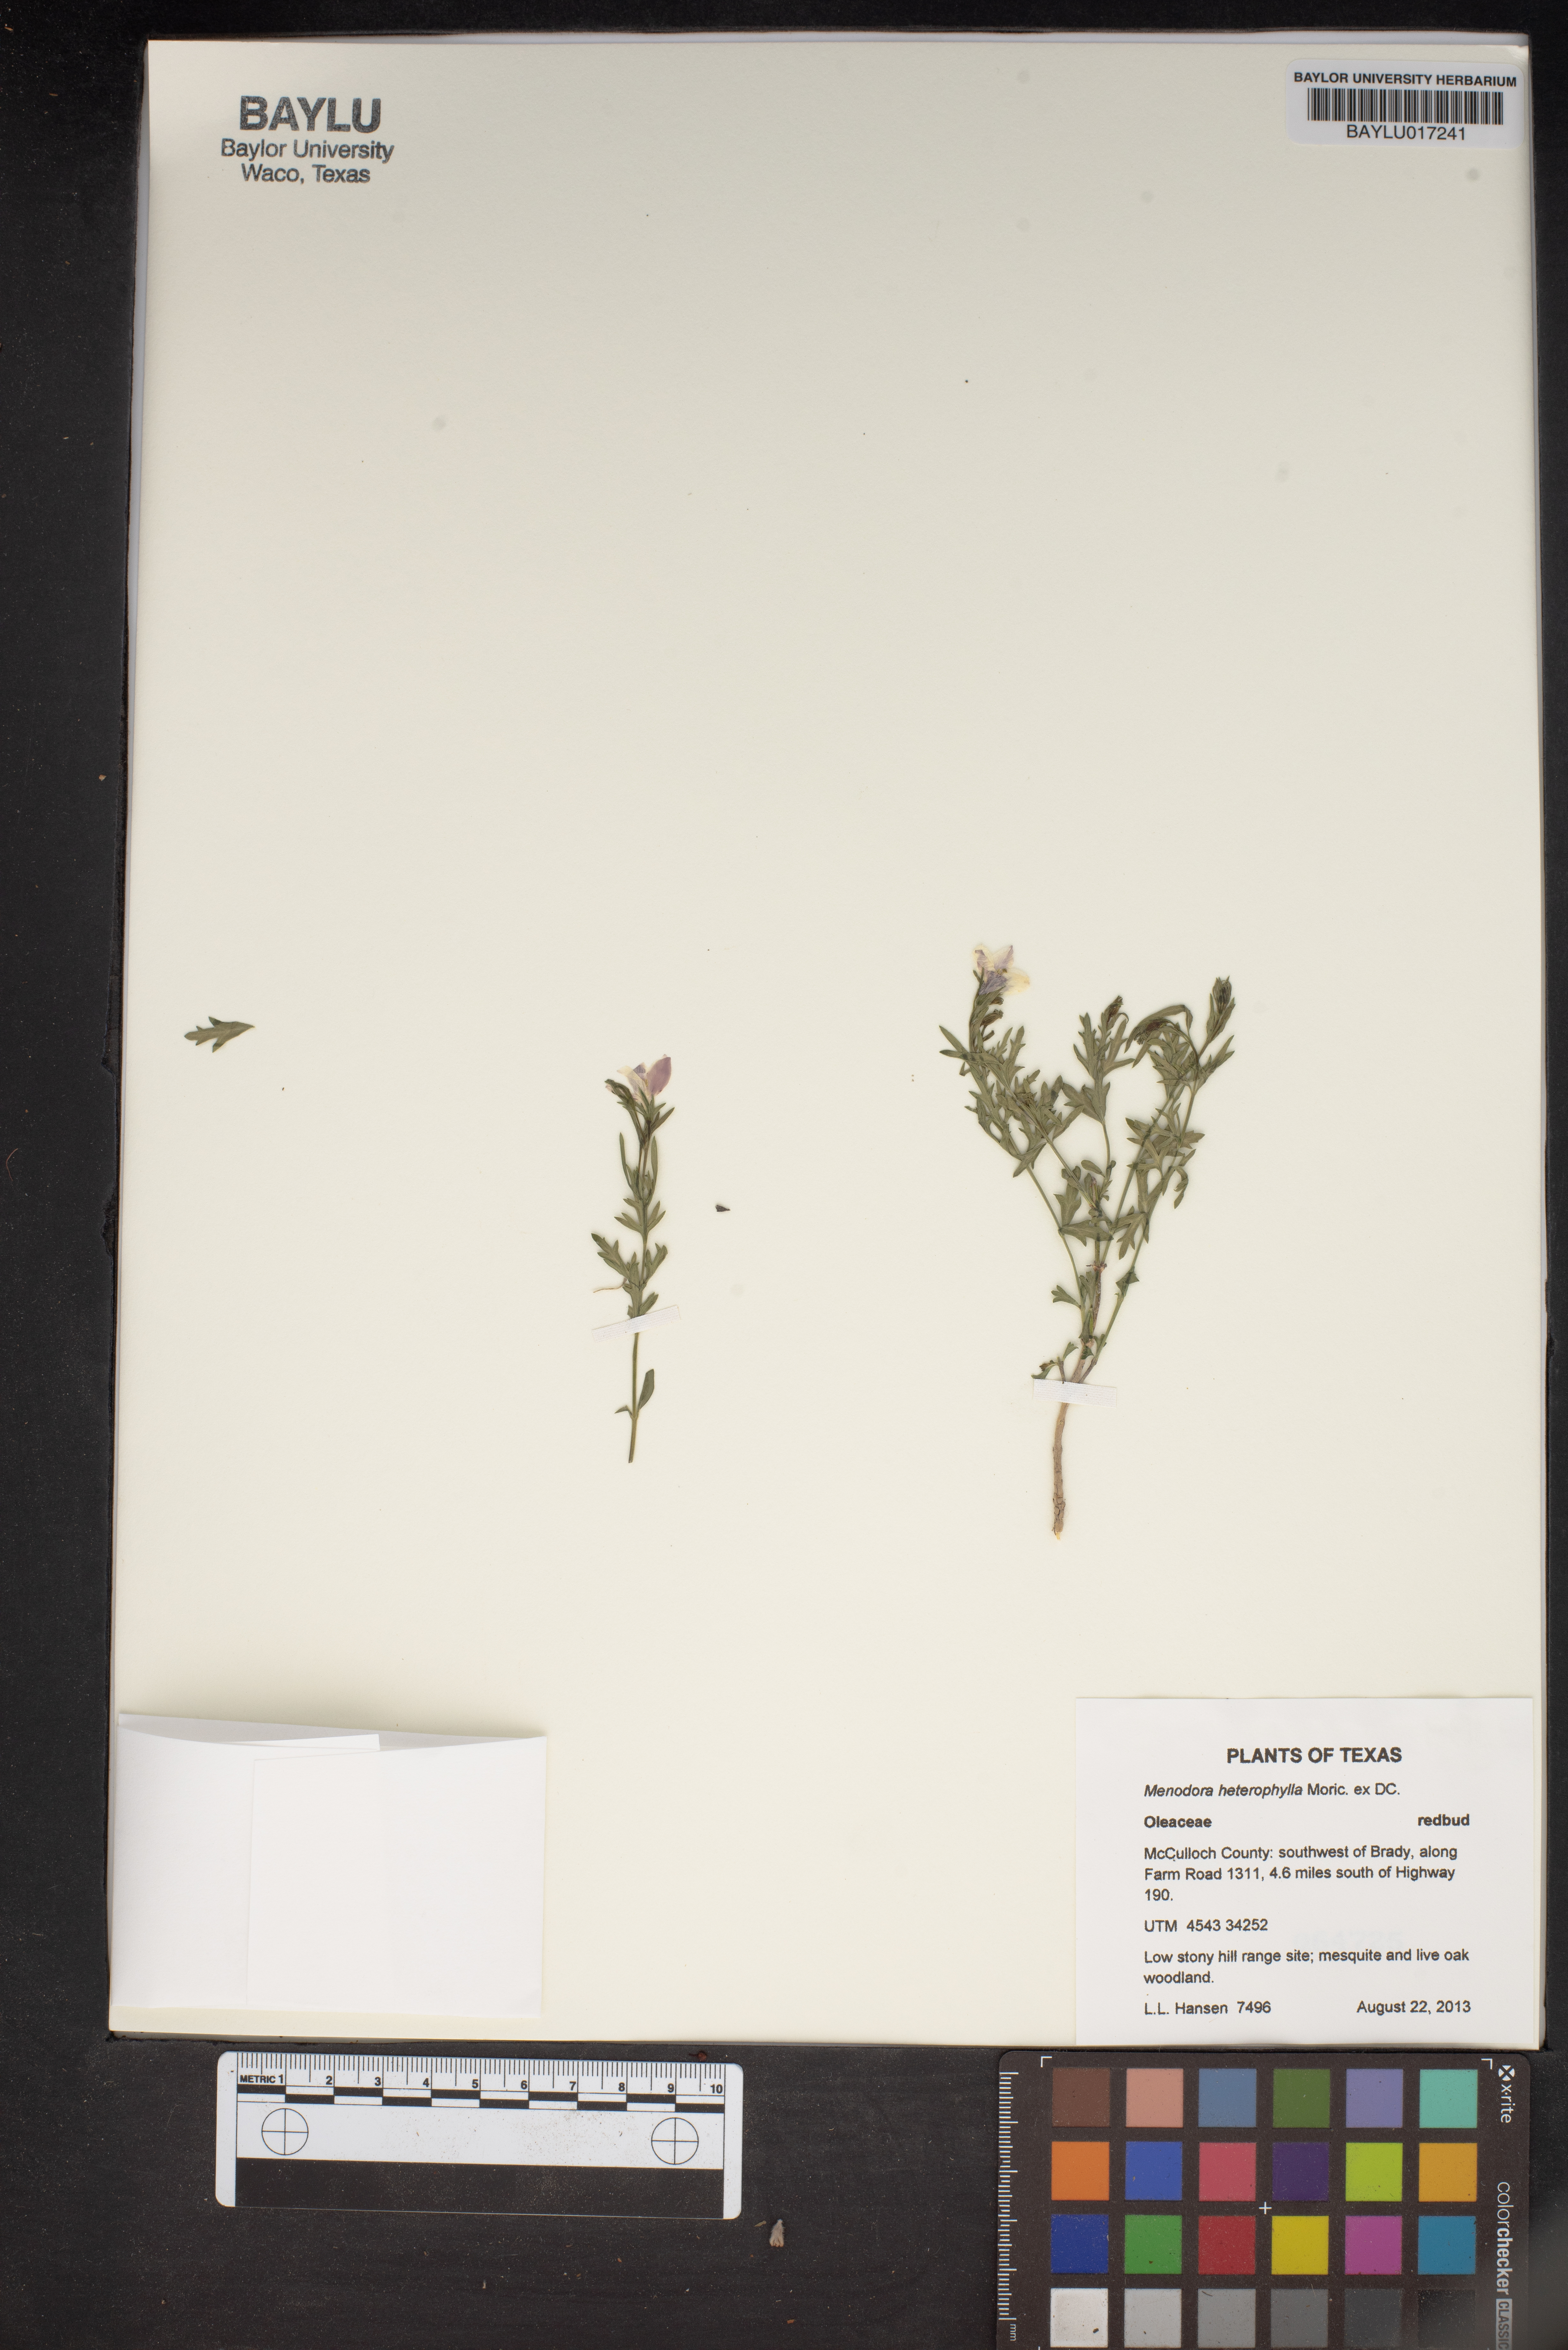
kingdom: Plantae
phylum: Tracheophyta
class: Magnoliopsida
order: Lamiales
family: Oleaceae
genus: Menodora
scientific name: Menodora heterophylla
